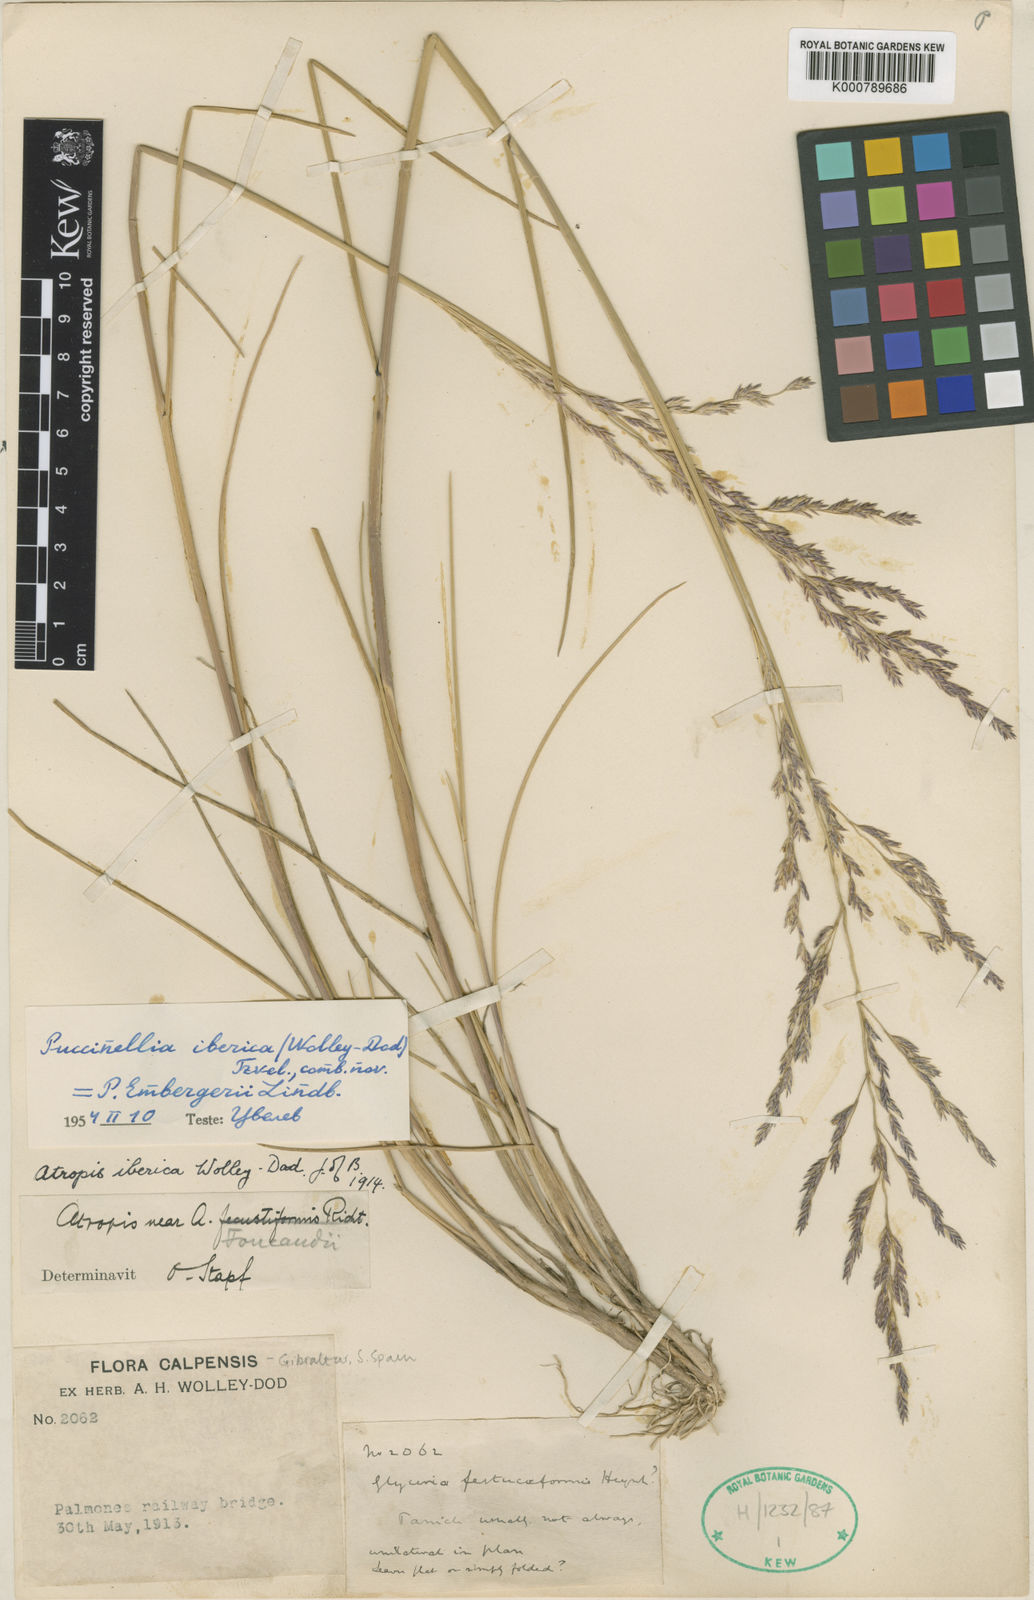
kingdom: Plantae
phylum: Tracheophyta
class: Liliopsida
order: Poales
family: Poaceae
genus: Puccinellia
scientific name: Puccinellia iberica
